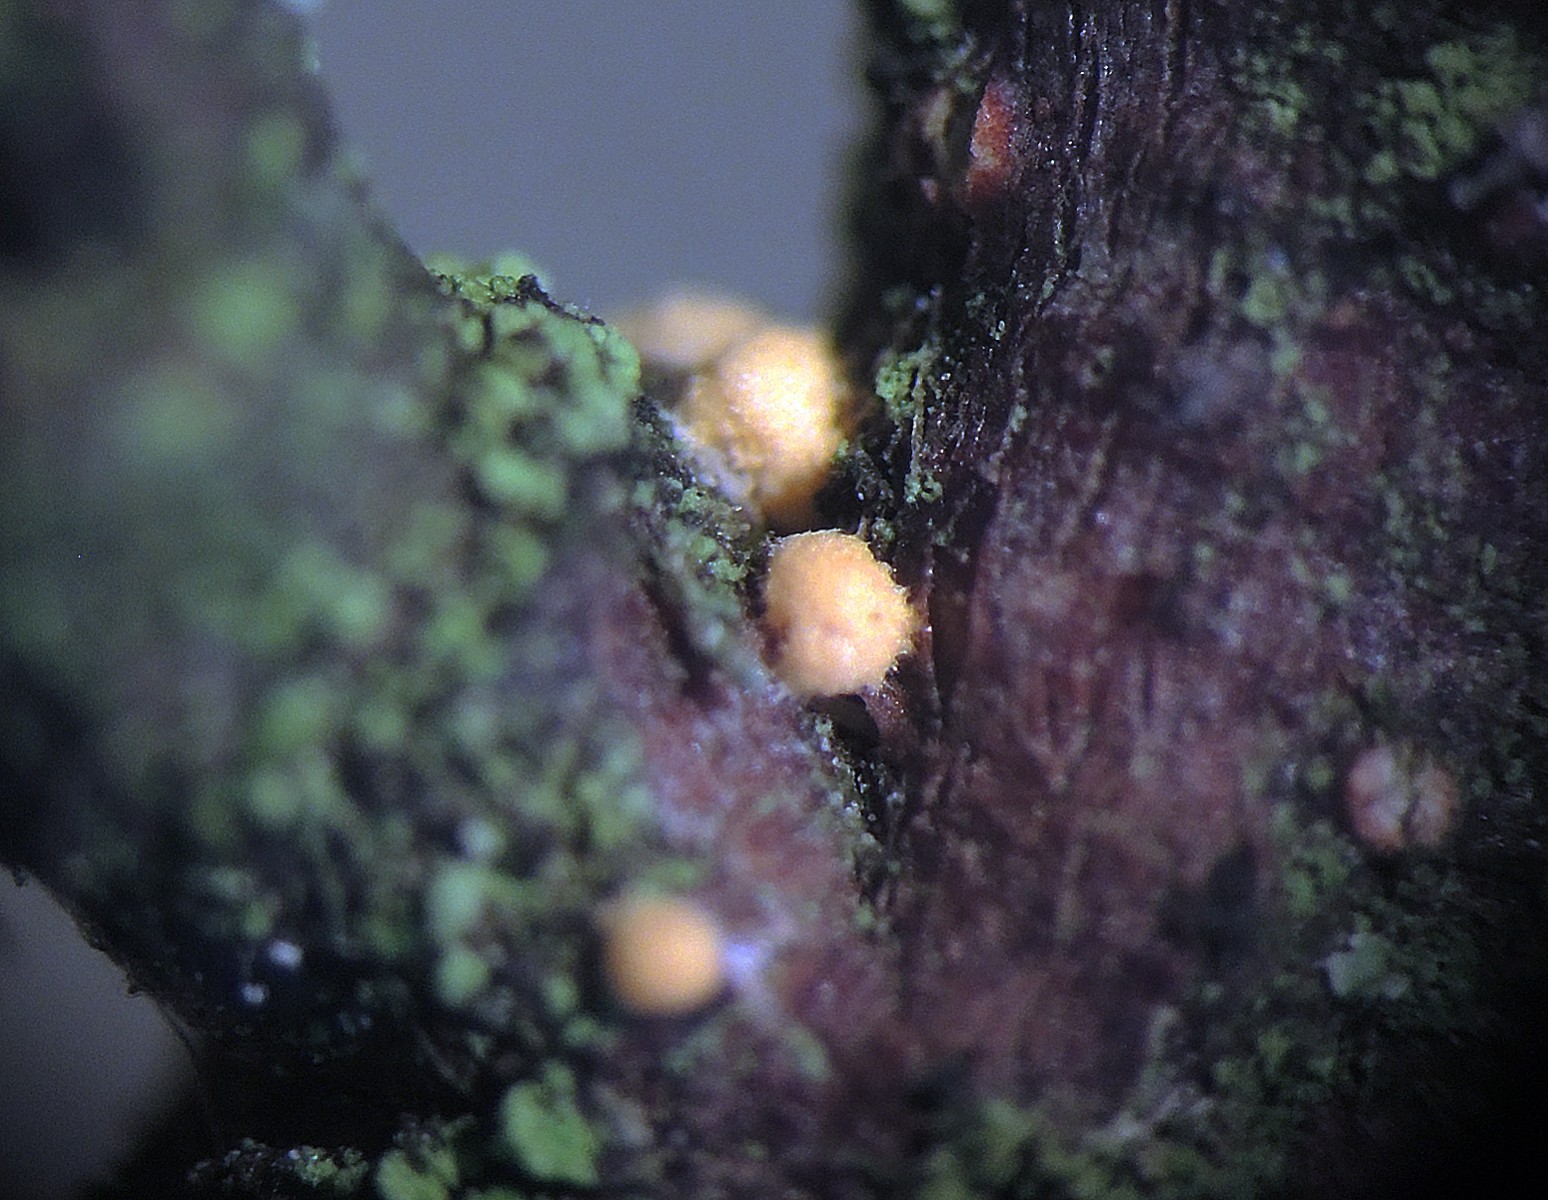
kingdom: Fungi
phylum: Ascomycota
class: Sordariomycetes
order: Xylariales
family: Xylariaceae
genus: Digitodochium
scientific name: Digitodochium rhodoleucum
